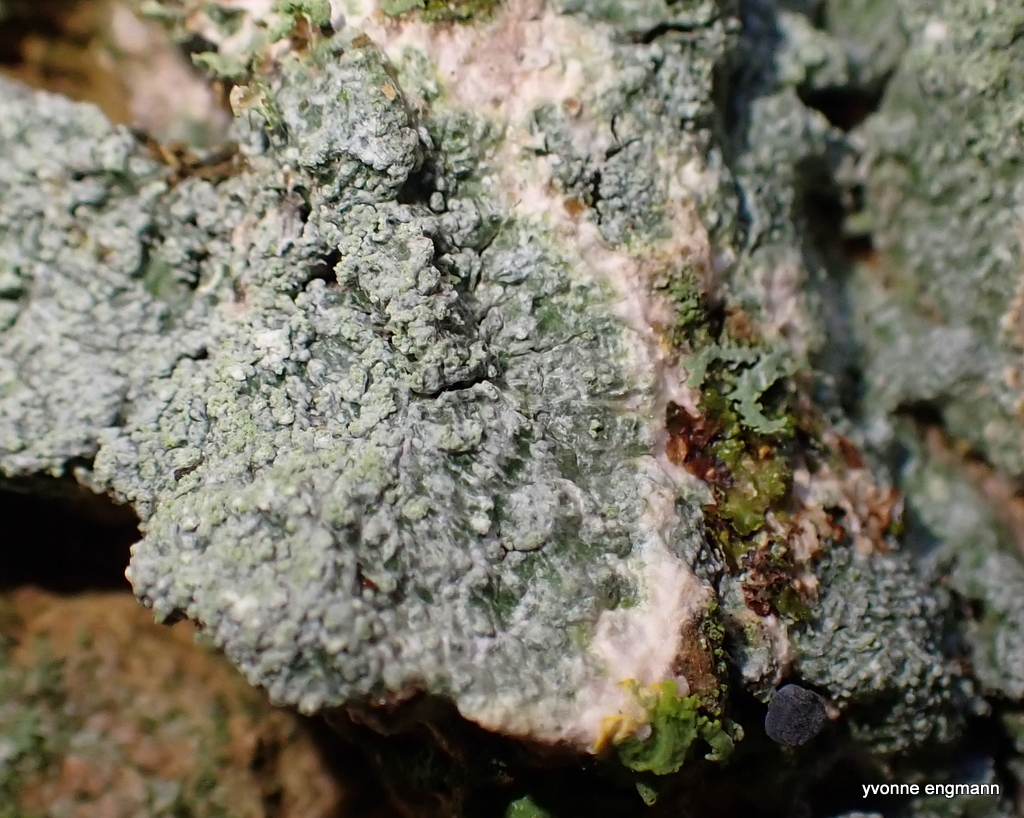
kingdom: Fungi
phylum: Ascomycota
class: Lecanoromycetes
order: Lecanorales
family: Haematommataceae
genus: Haematomma
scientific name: Haematomma ochroleucum
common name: gul trådkantlav
